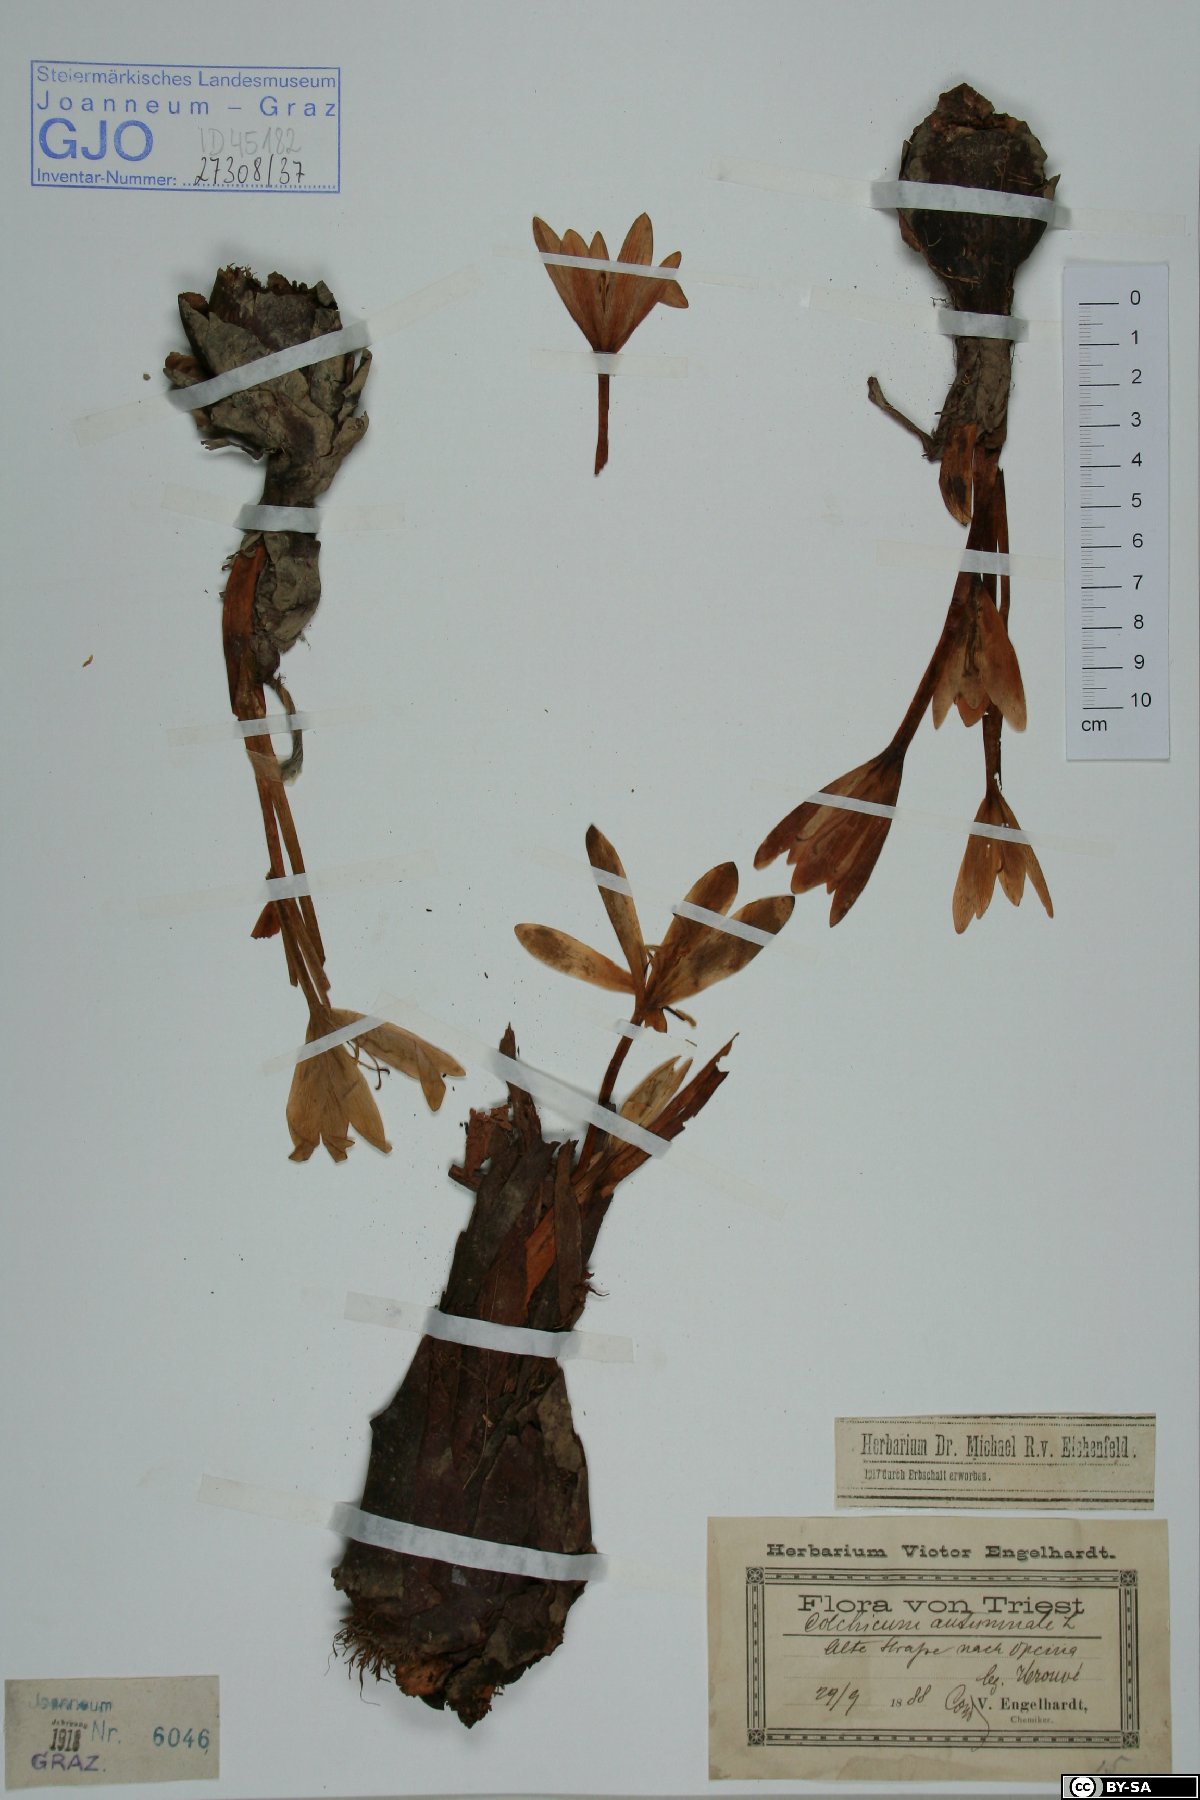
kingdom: Plantae
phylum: Tracheophyta
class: Liliopsida
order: Liliales
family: Colchicaceae
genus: Colchicum
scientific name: Colchicum autumnale
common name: Autumn crocus
